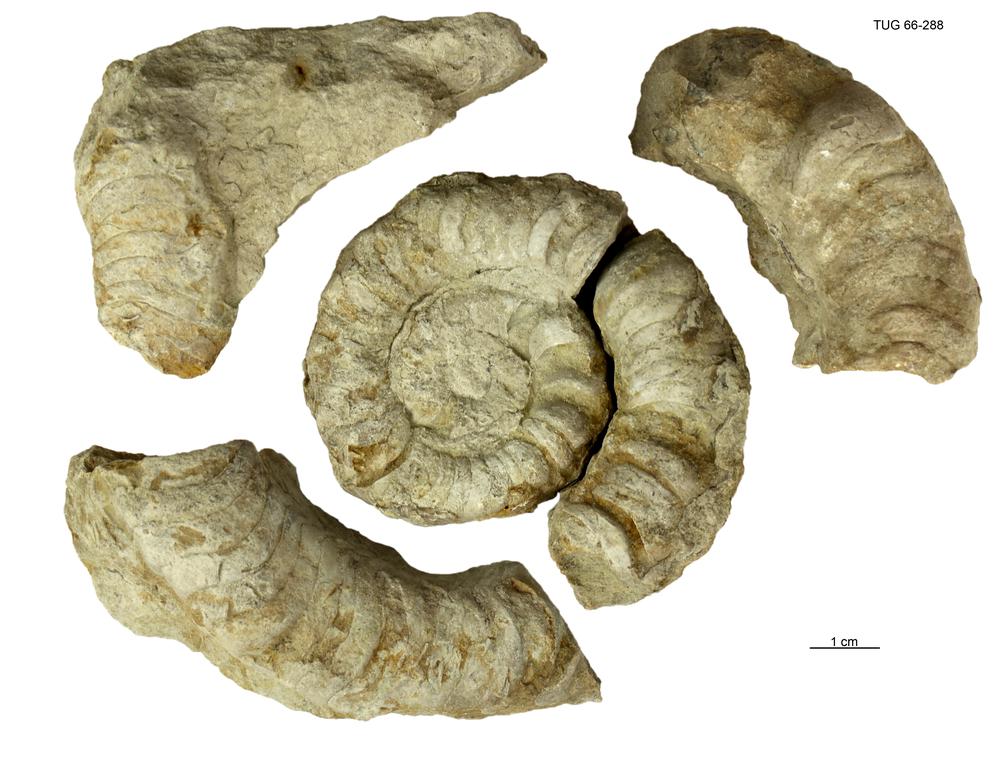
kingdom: Animalia
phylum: Mollusca
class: Cephalopoda
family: Trocholitidae
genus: Discoceras
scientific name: Discoceras antiquissimus
